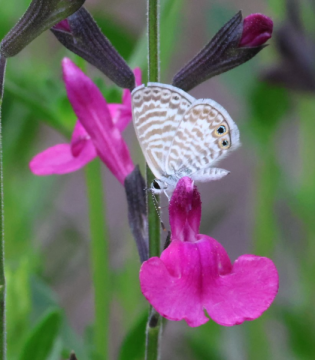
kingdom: Animalia
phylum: Arthropoda
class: Insecta
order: Lepidoptera
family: Lycaenidae
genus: Leptotes
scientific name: Leptotes marina
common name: Marine Blue
